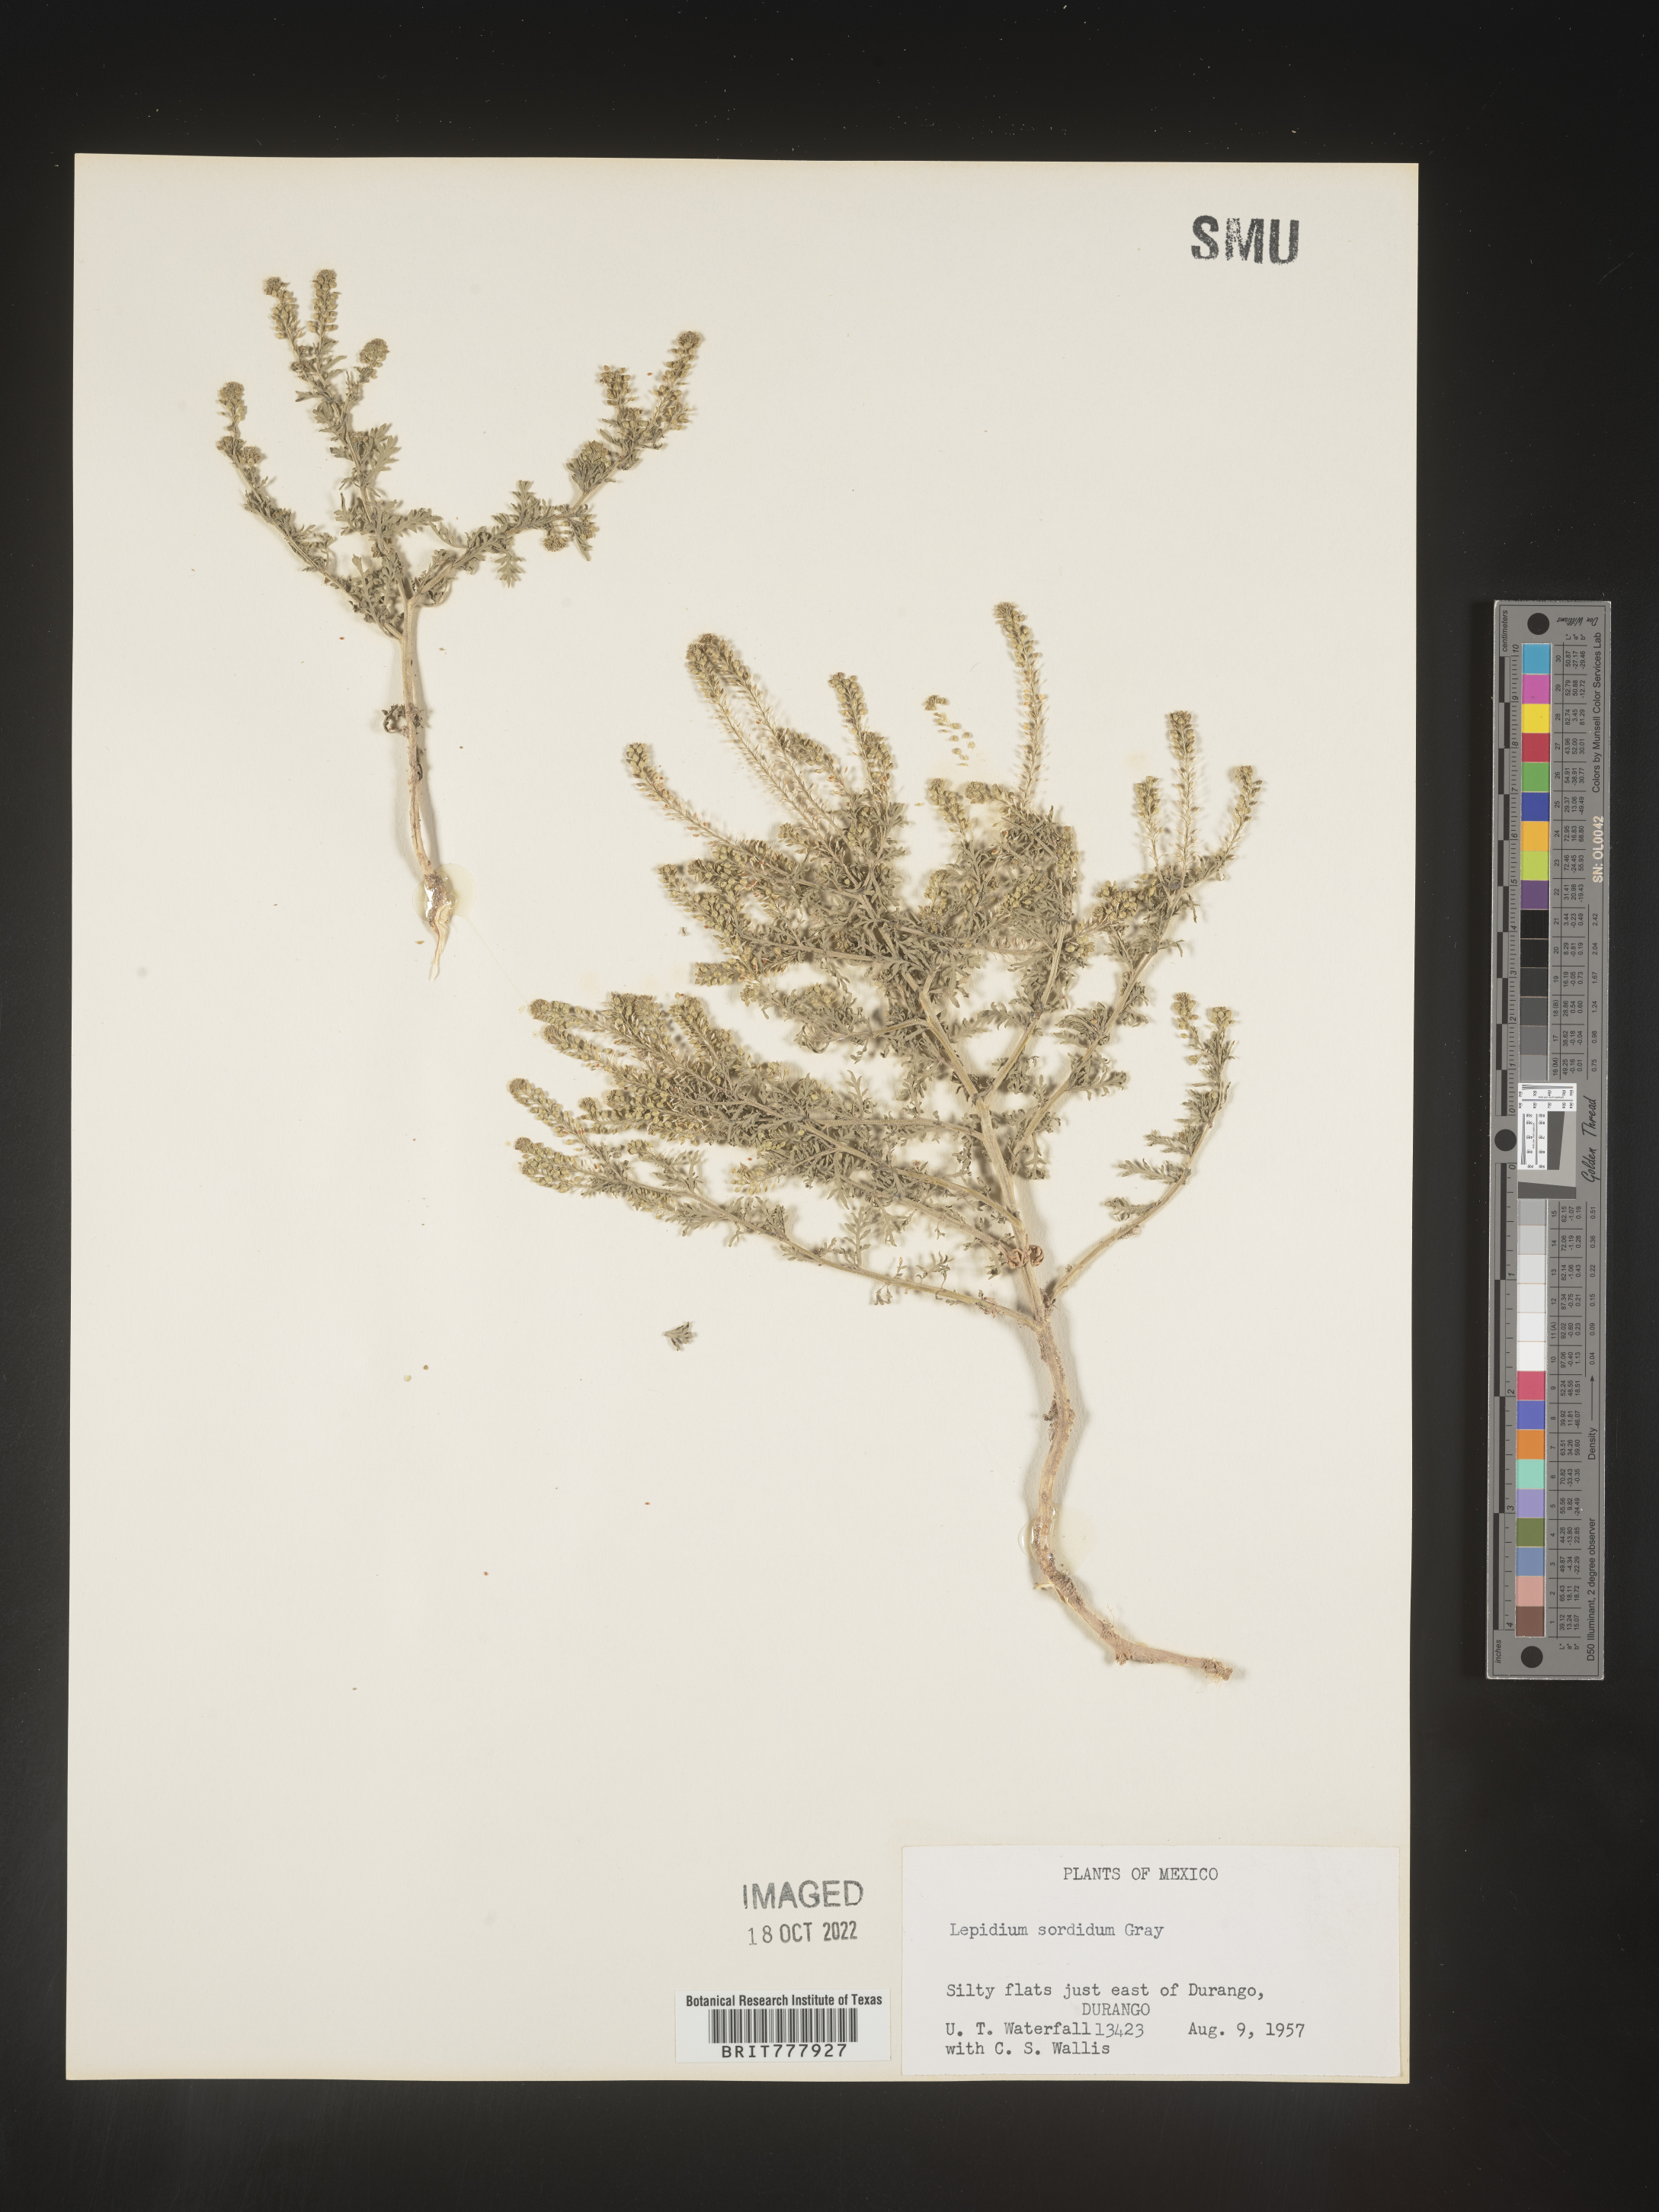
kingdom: Plantae
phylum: Tracheophyta
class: Magnoliopsida
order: Brassicales
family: Brassicaceae
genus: Lepidium
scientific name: Lepidium
